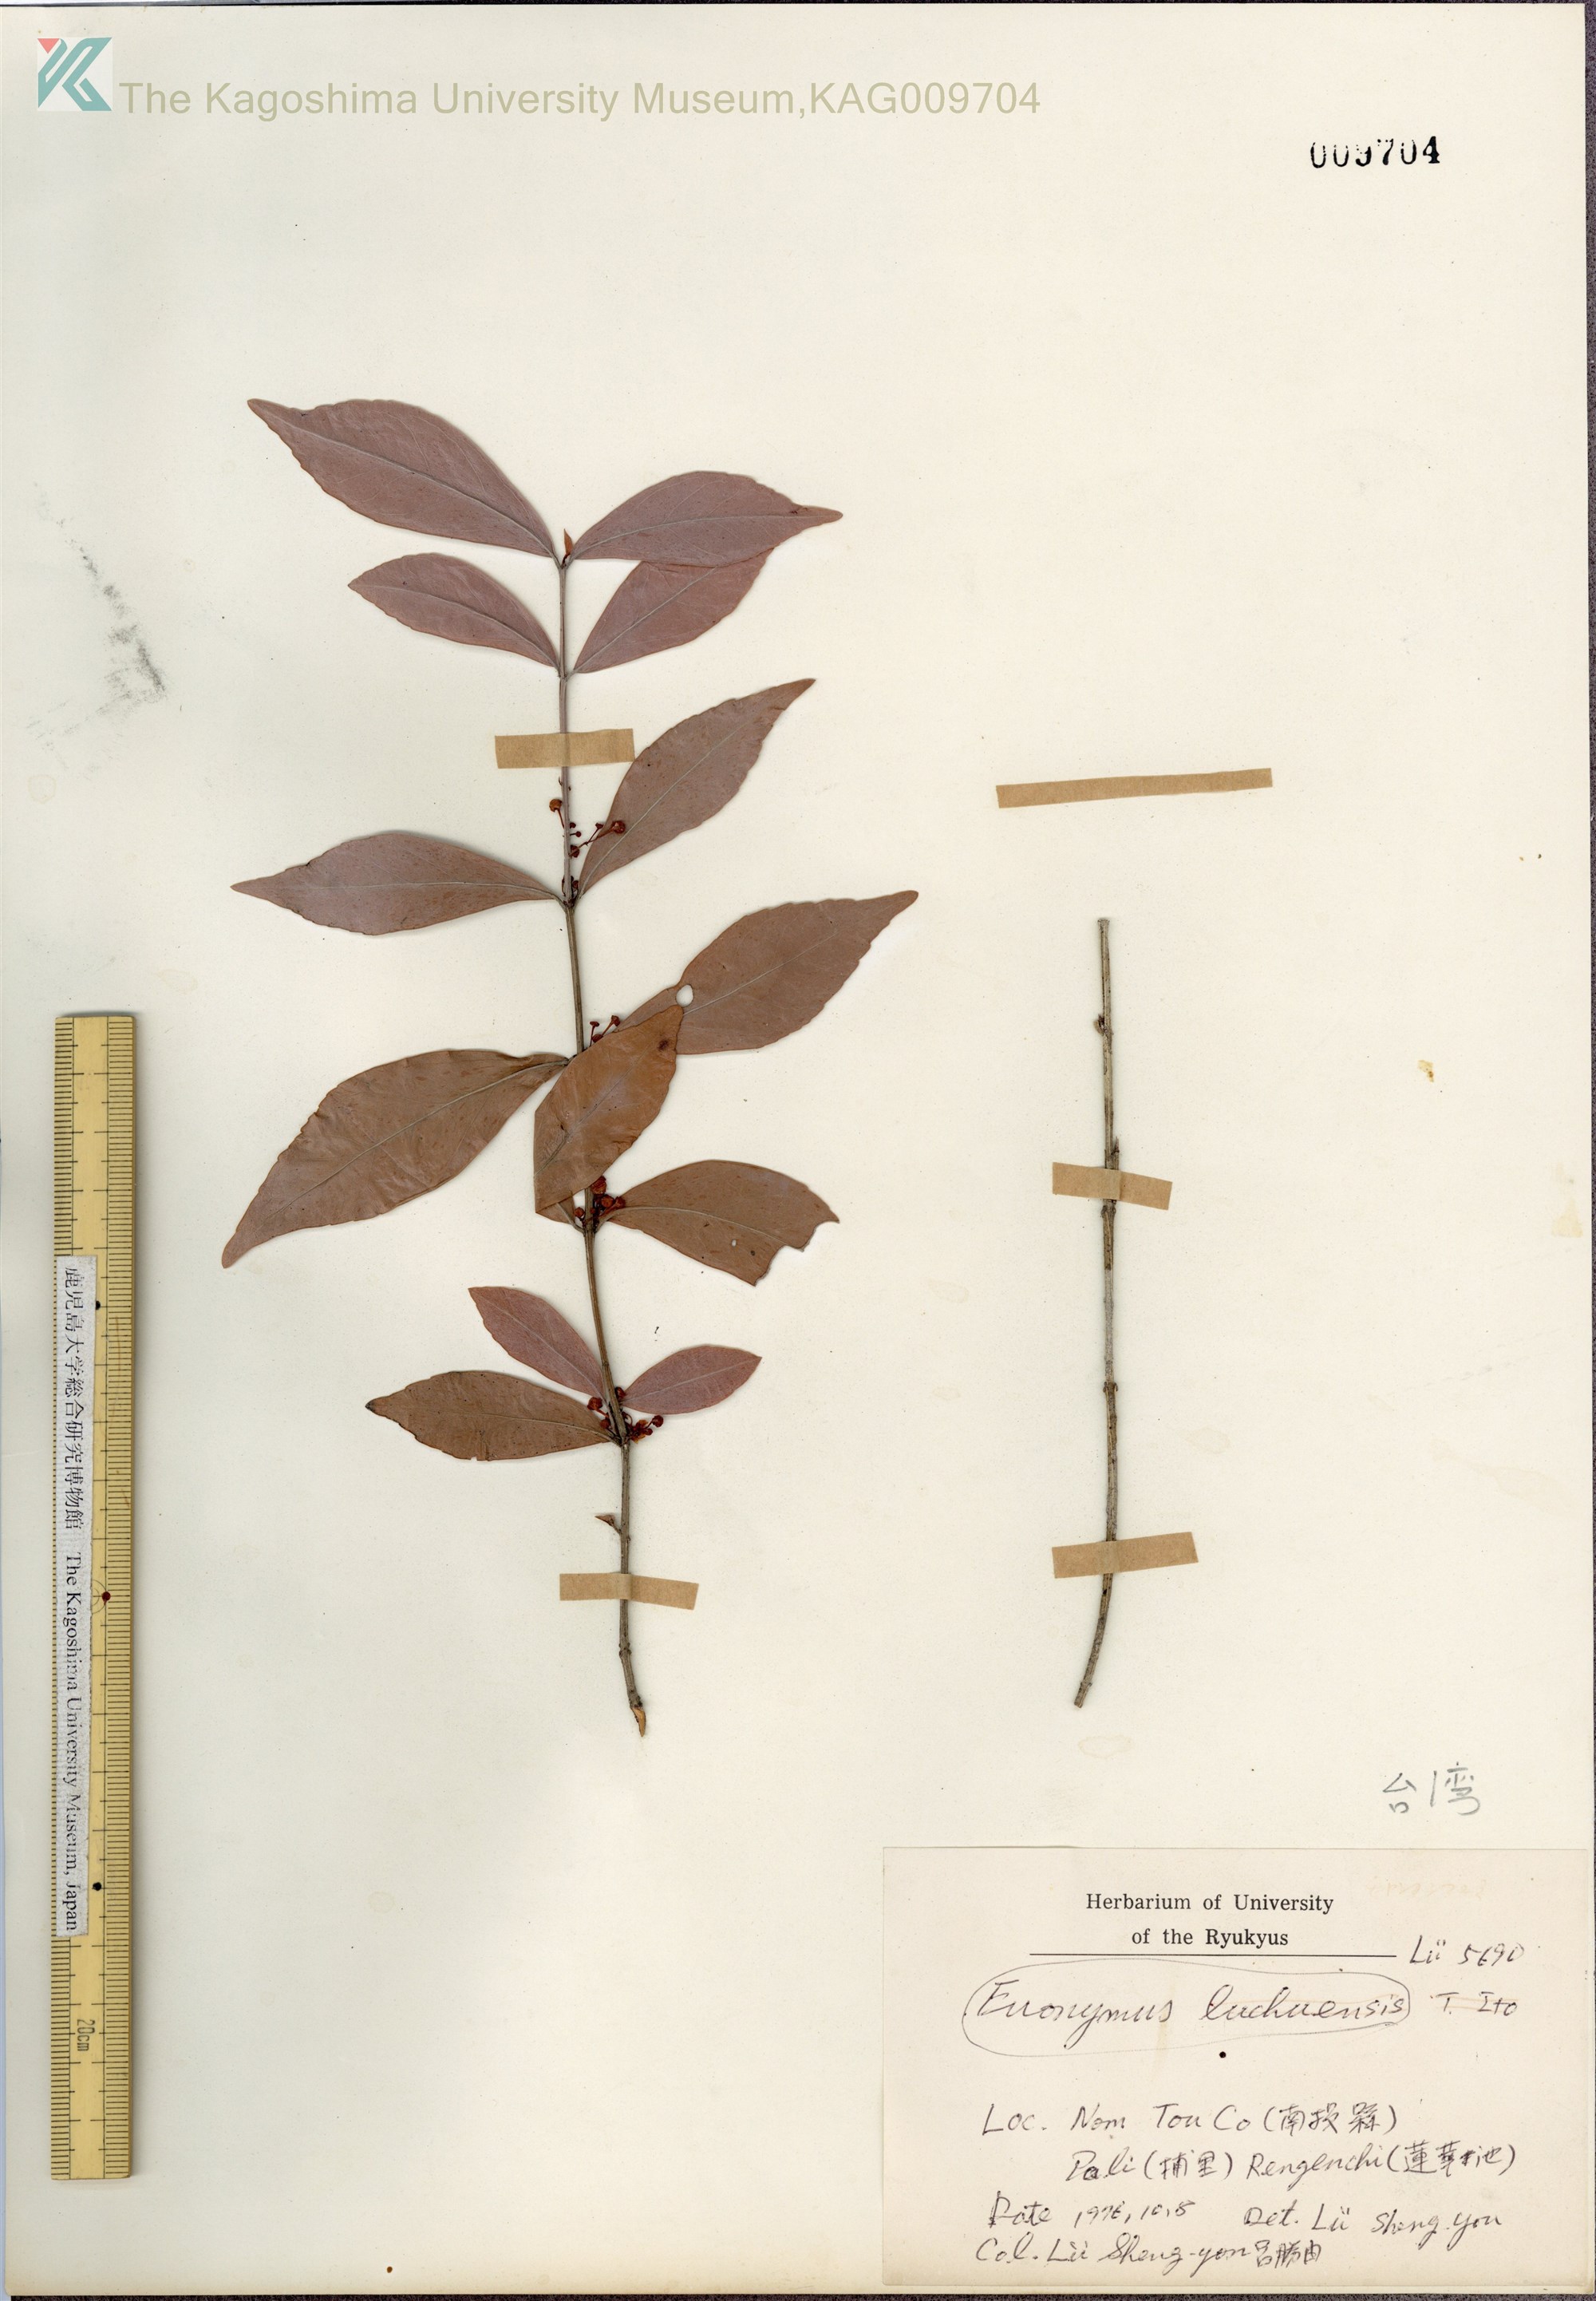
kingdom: Plantae
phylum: Tracheophyta
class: Magnoliopsida
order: Celastrales
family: Celastraceae
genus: Euonymus
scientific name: Euonymus lutchuensis
